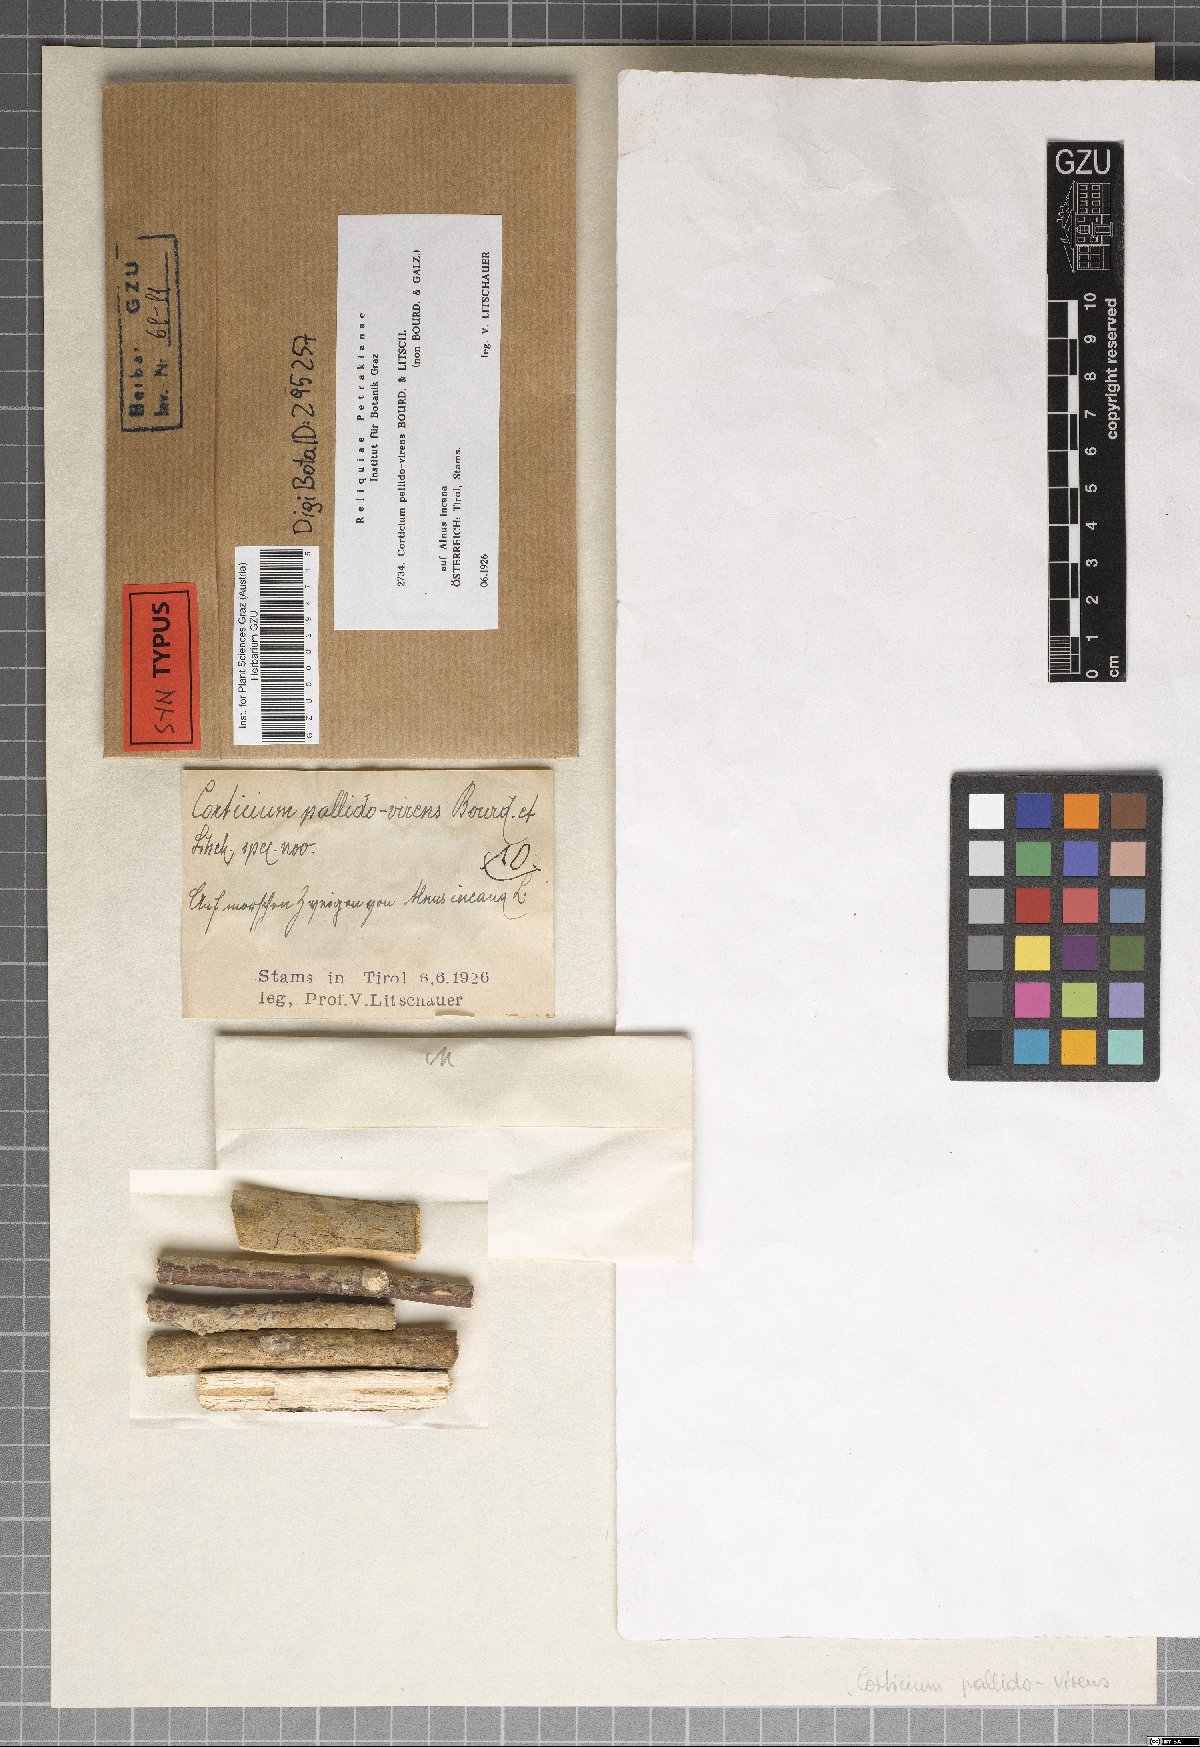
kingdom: Fungi
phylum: Basidiomycota
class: Agaricomycetes
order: Polyporales
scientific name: Polyporales
